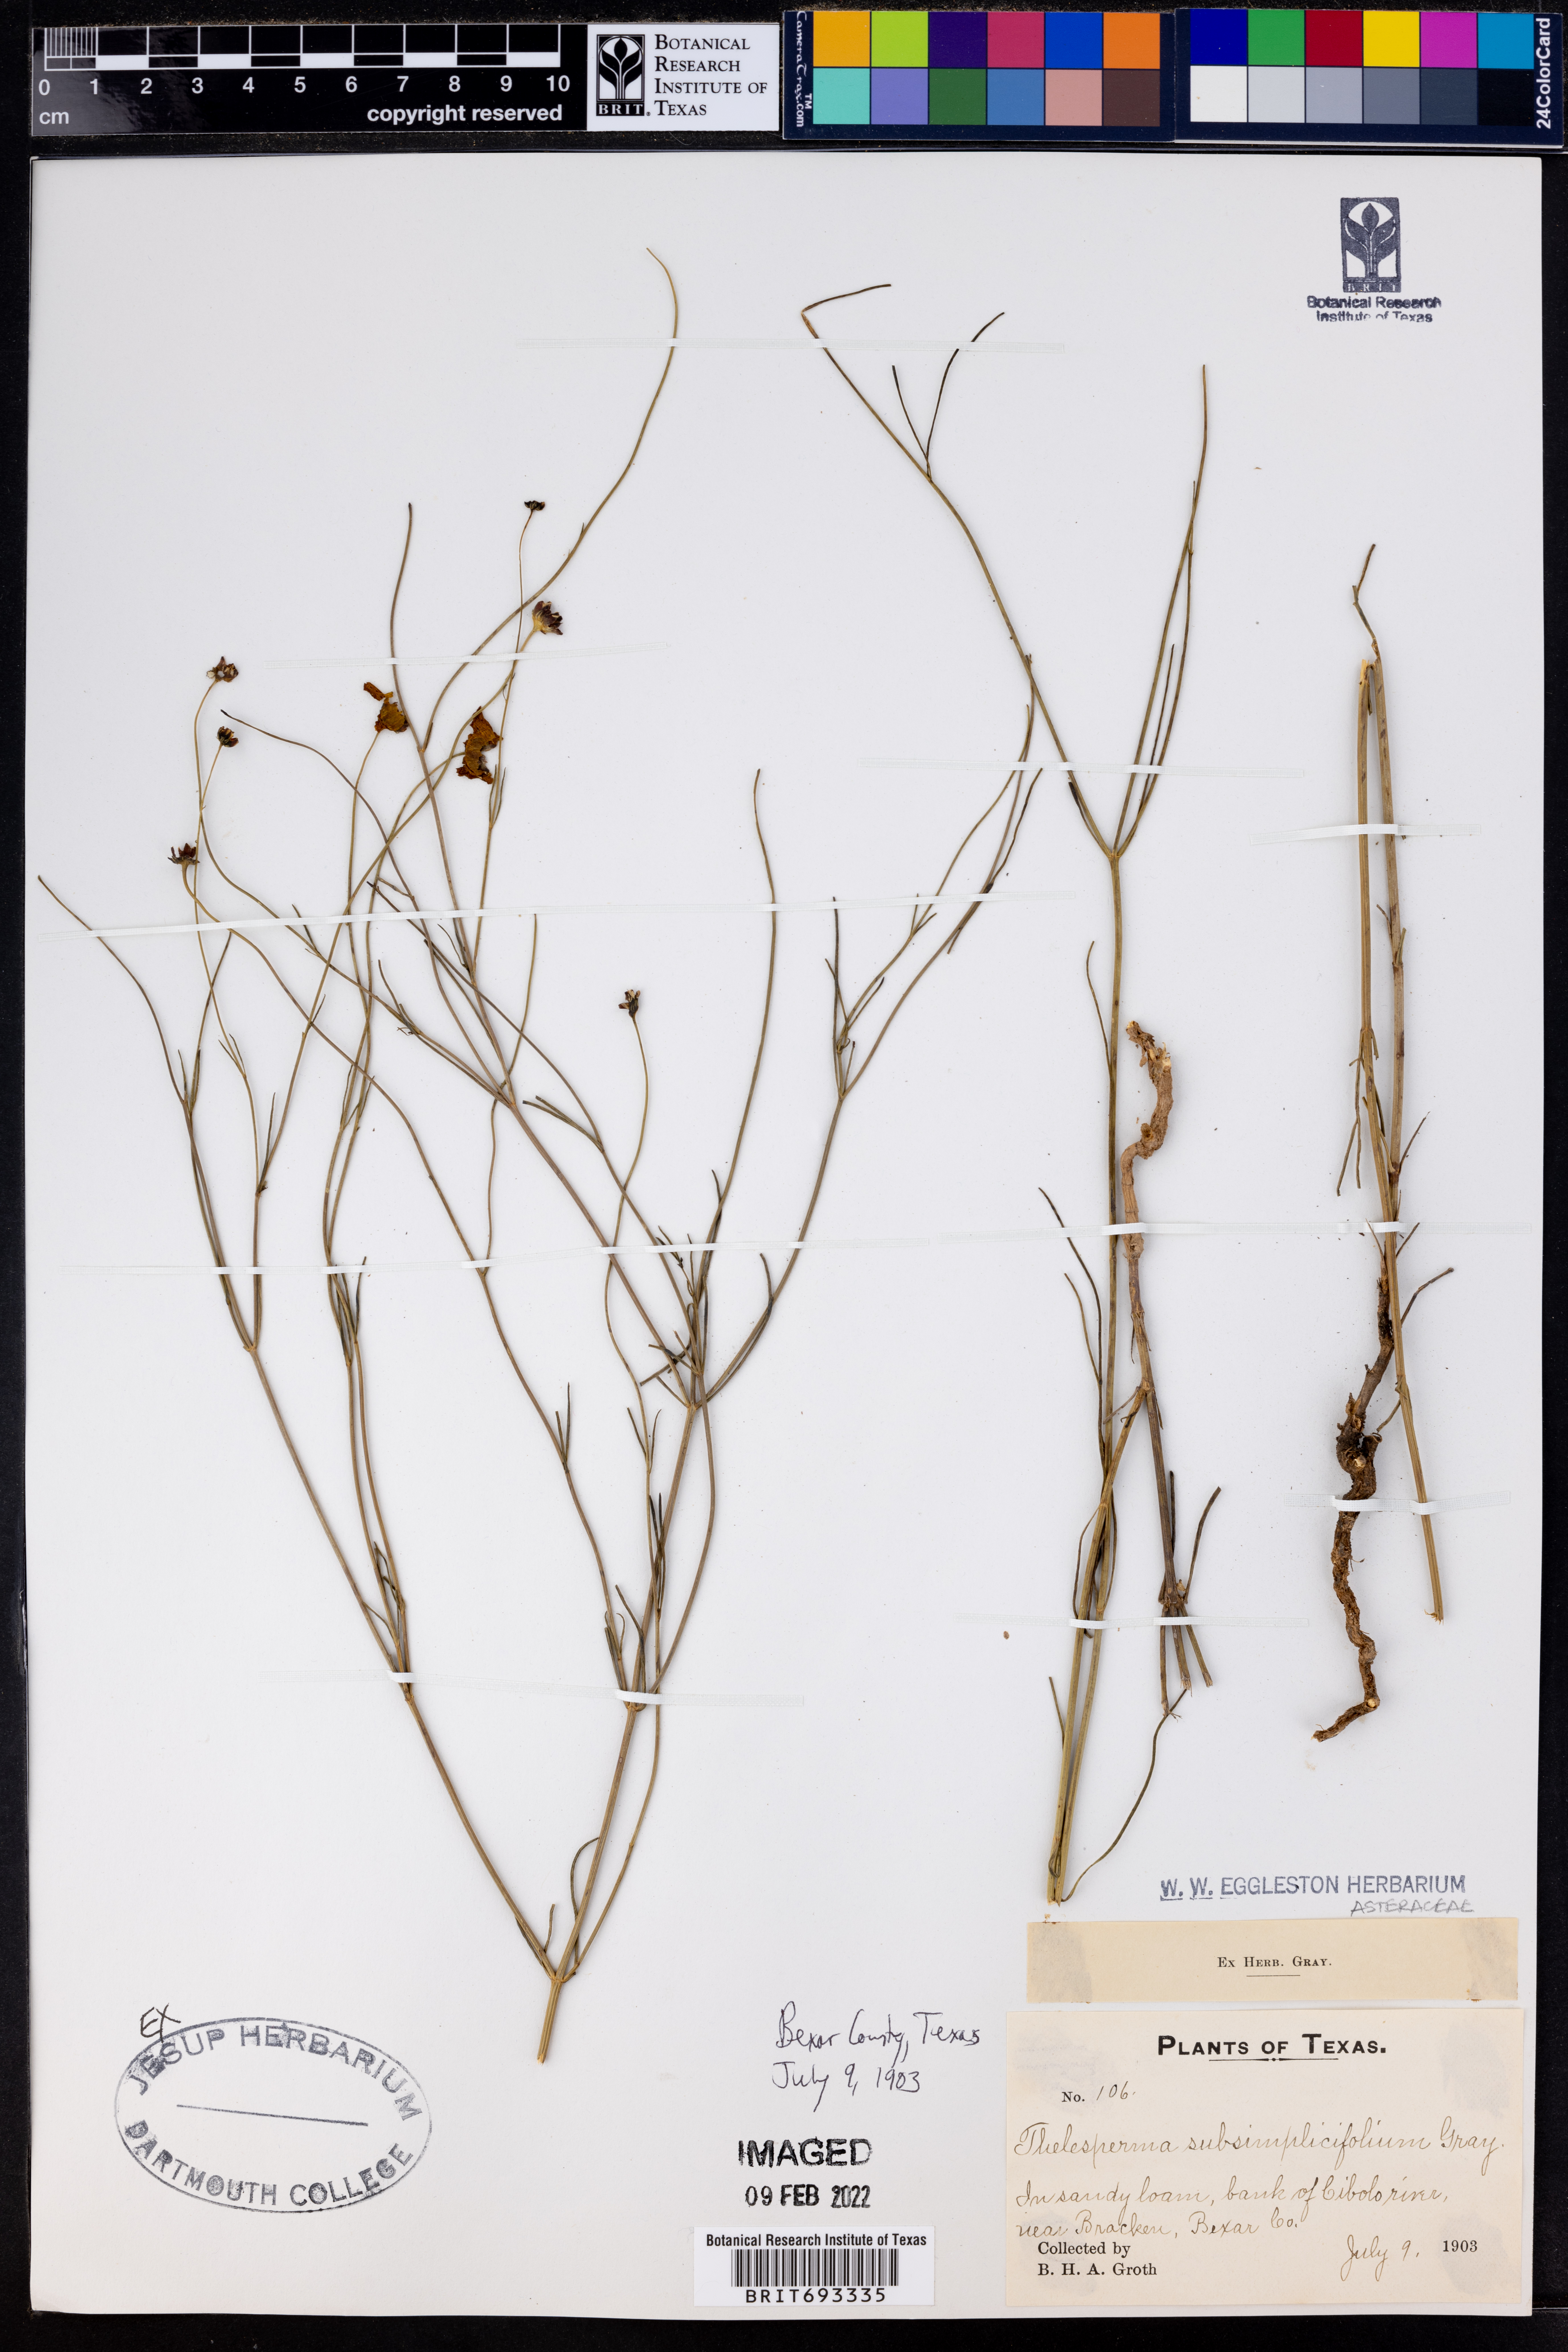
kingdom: Plantae
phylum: Tracheophyta
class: Magnoliopsida
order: Asterales
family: Asteraceae
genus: Thelesperma
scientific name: Thelesperma subsimplicifolium
